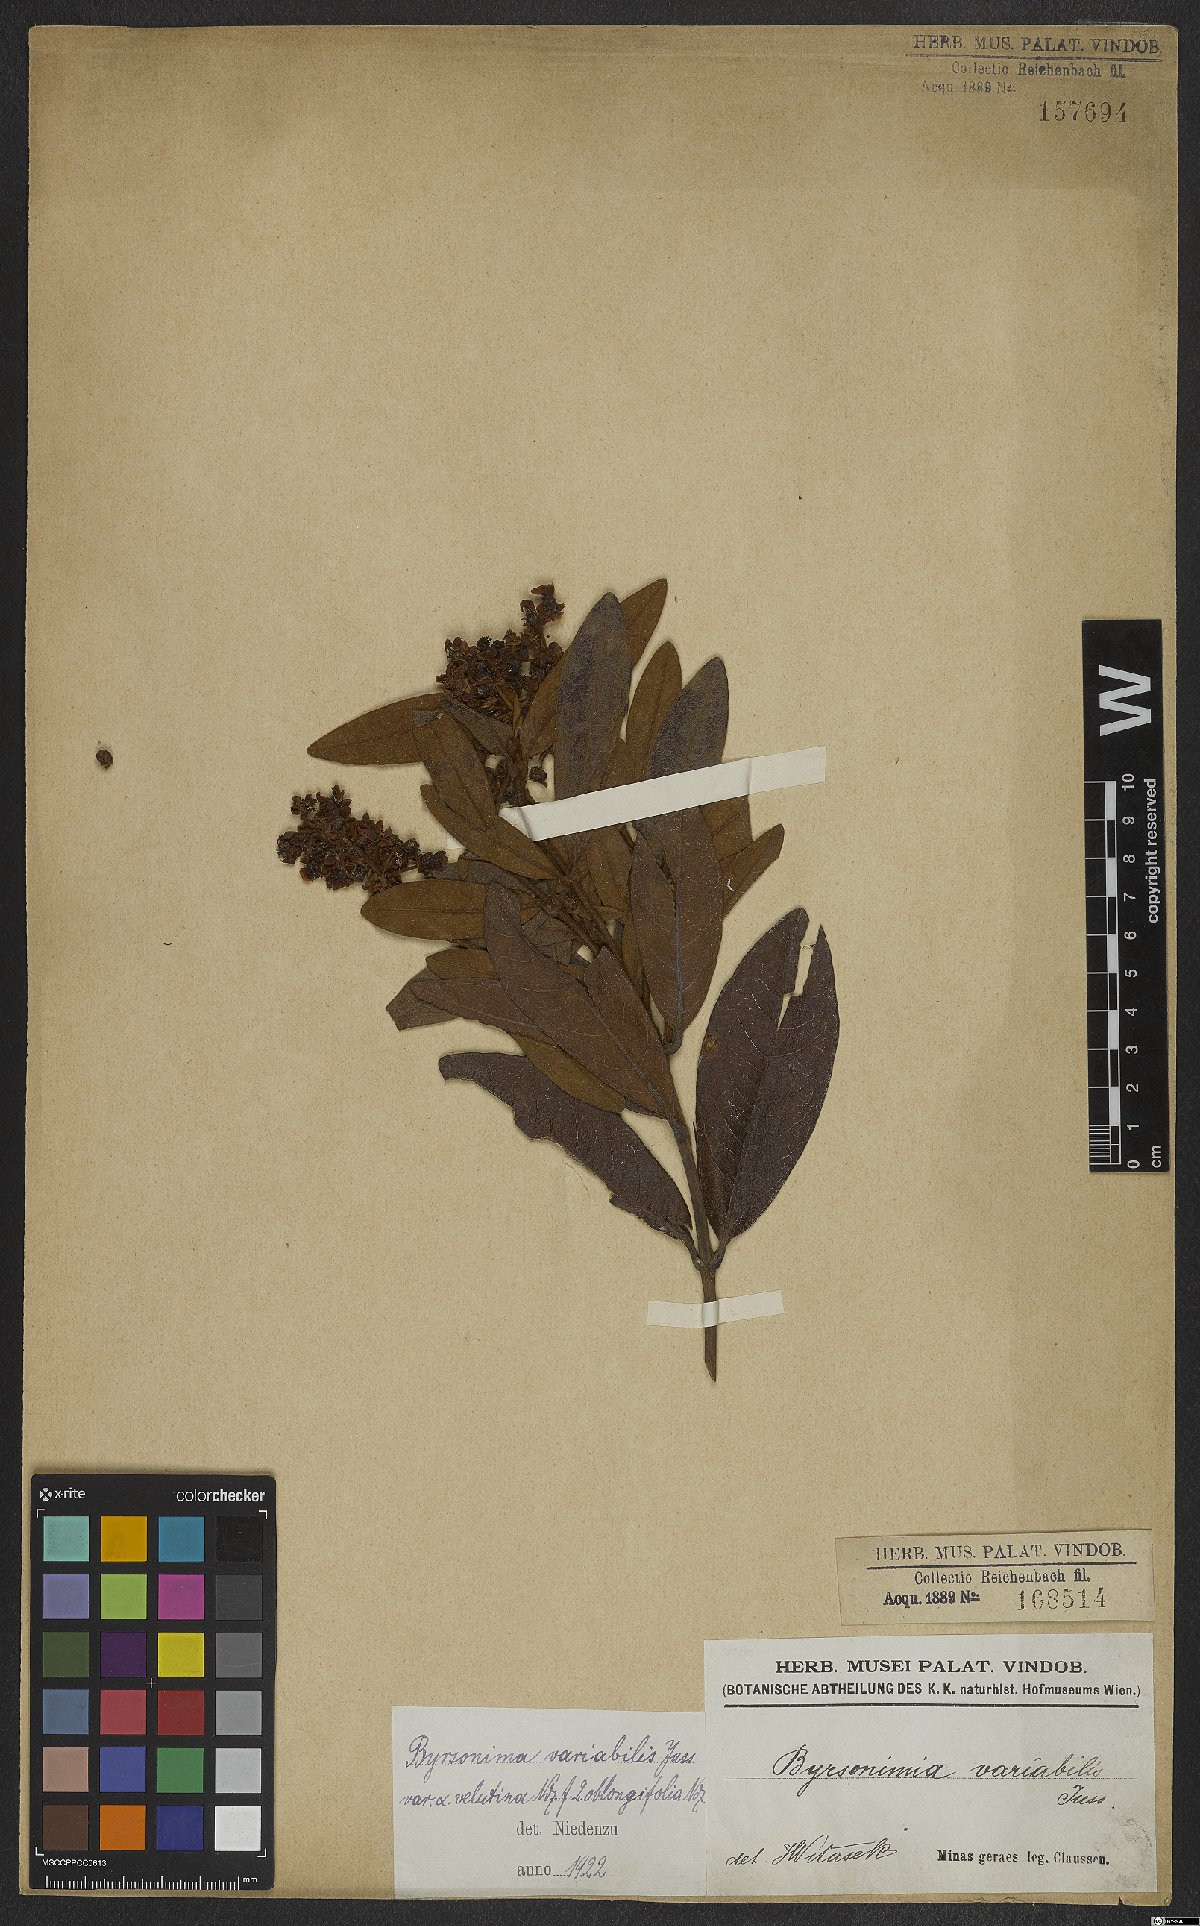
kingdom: Plantae
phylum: Tracheophyta
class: Magnoliopsida
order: Malpighiales
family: Malpighiaceae
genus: Byrsonima
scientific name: Byrsonima variabilis
